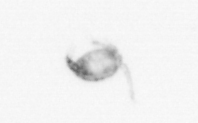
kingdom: Animalia
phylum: Arthropoda
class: Copepoda
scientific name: Copepoda
